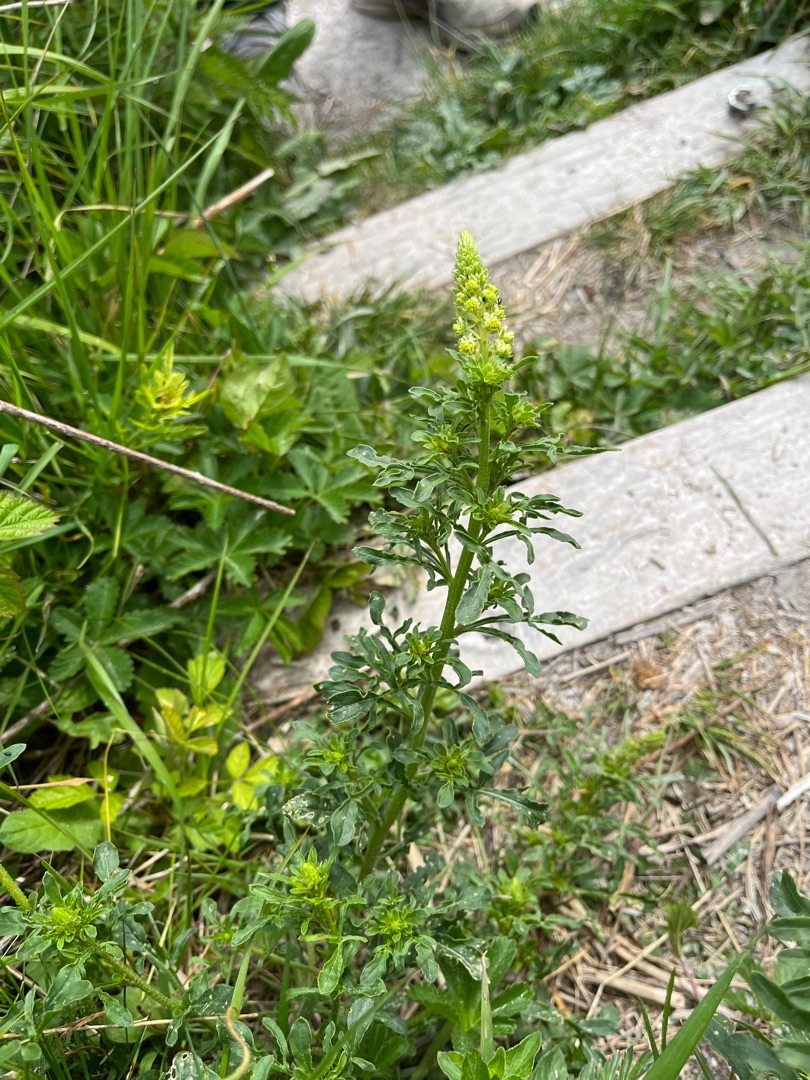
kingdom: Plantae
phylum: Tracheophyta
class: Magnoliopsida
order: Brassicales
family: Resedaceae
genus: Reseda
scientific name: Reseda lutea
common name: Gul reseda
